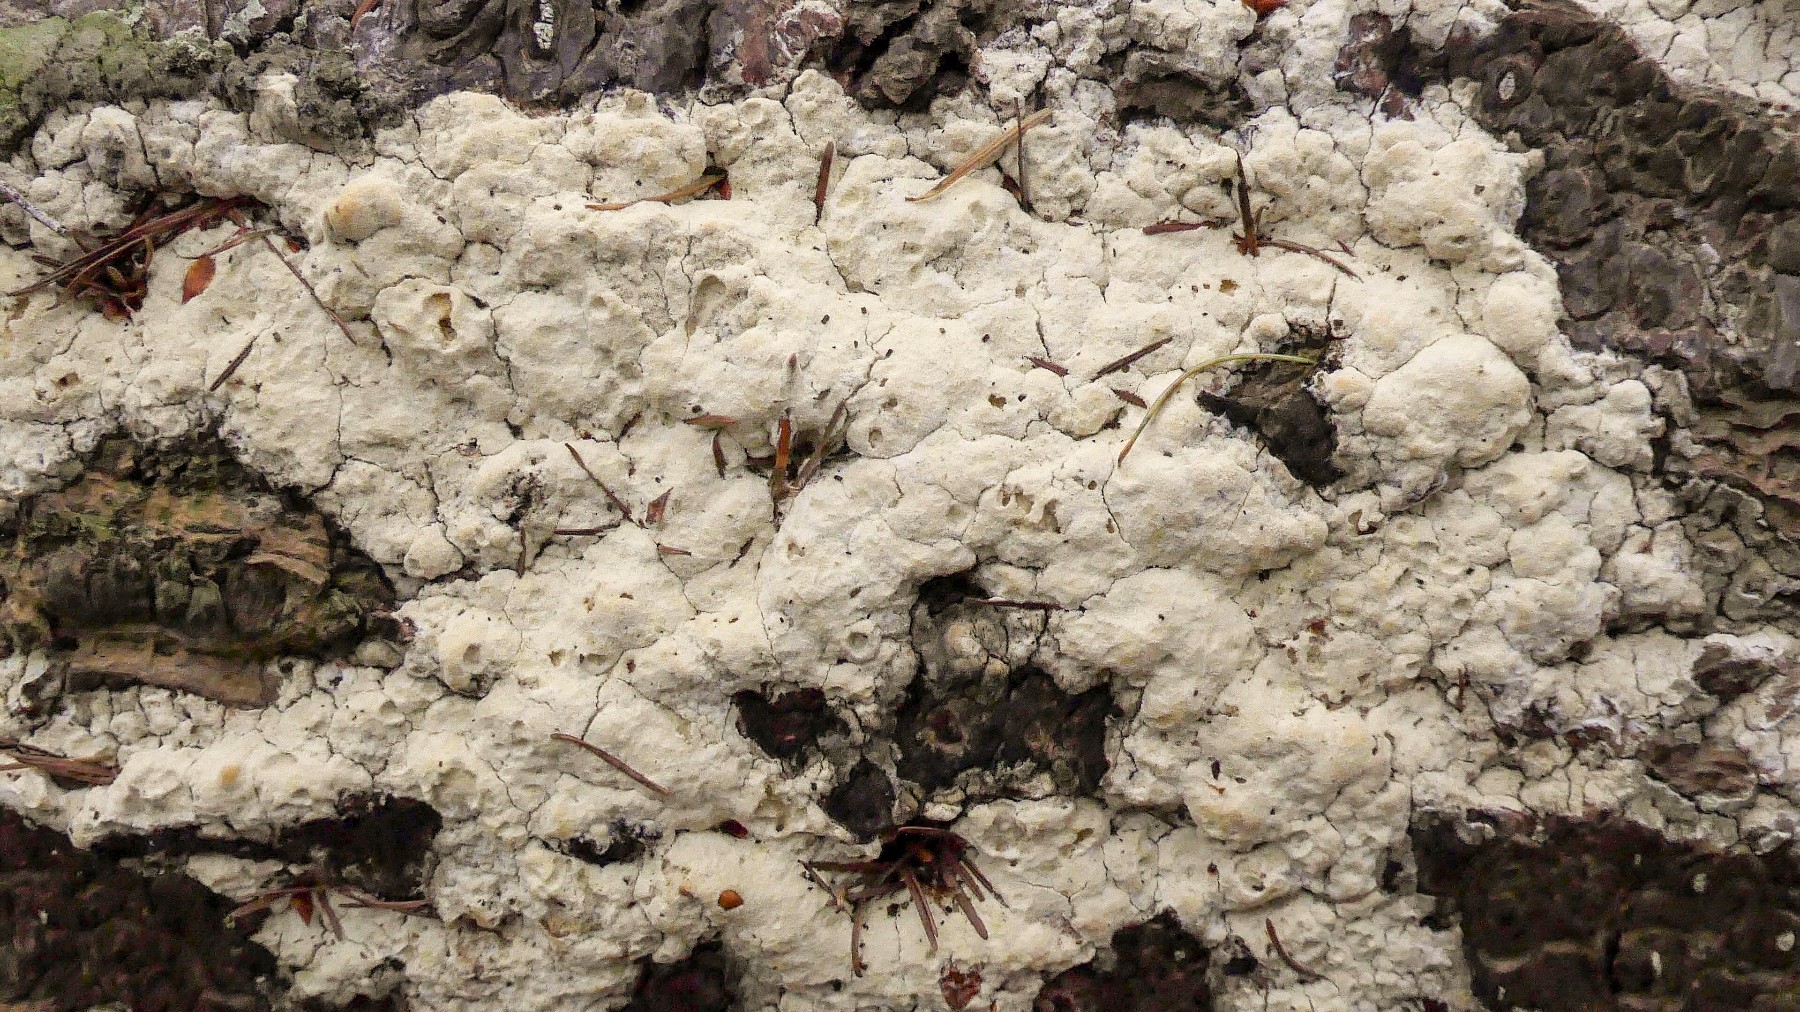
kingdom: Fungi
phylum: Basidiomycota
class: Agaricomycetes
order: Polyporales
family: Fomitopsidaceae
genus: Daedalea
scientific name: Daedalea xantha
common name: gul sejporesvamp
